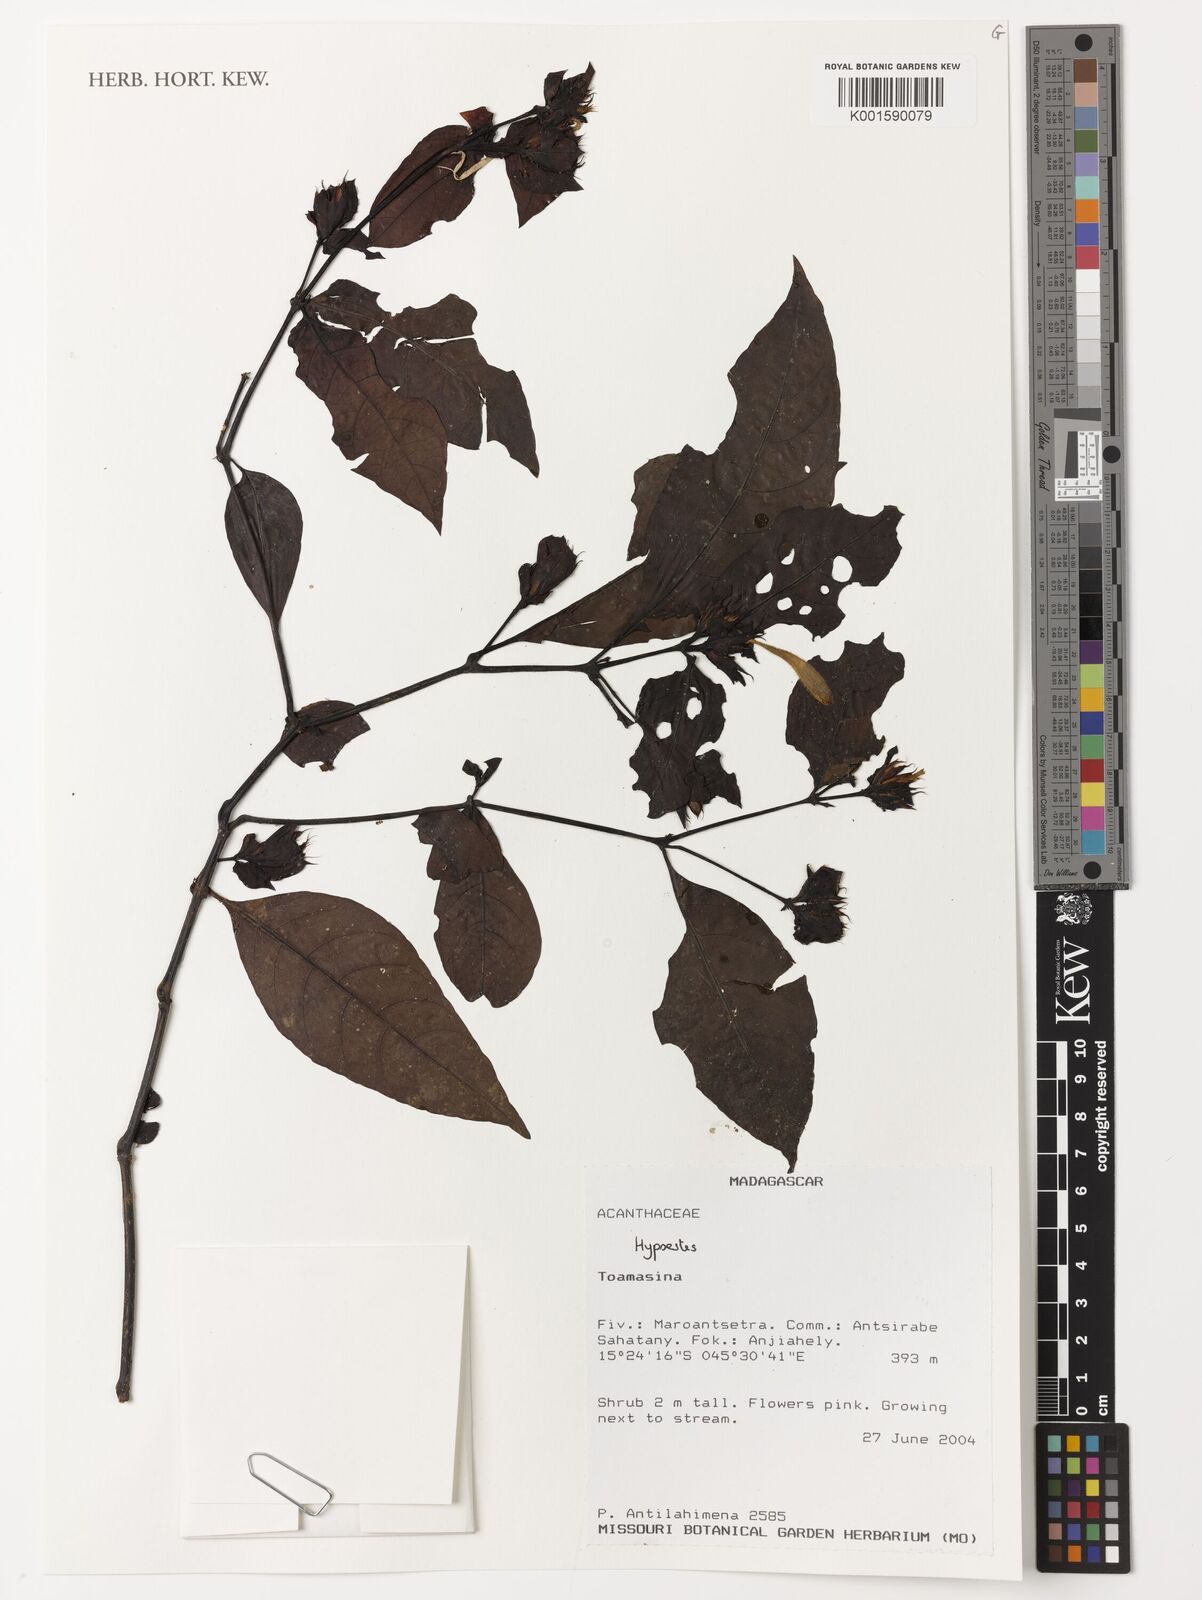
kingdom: Plantae
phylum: Tracheophyta
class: Magnoliopsida
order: Lamiales
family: Acanthaceae
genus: Hypoestes
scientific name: Hypoestes
